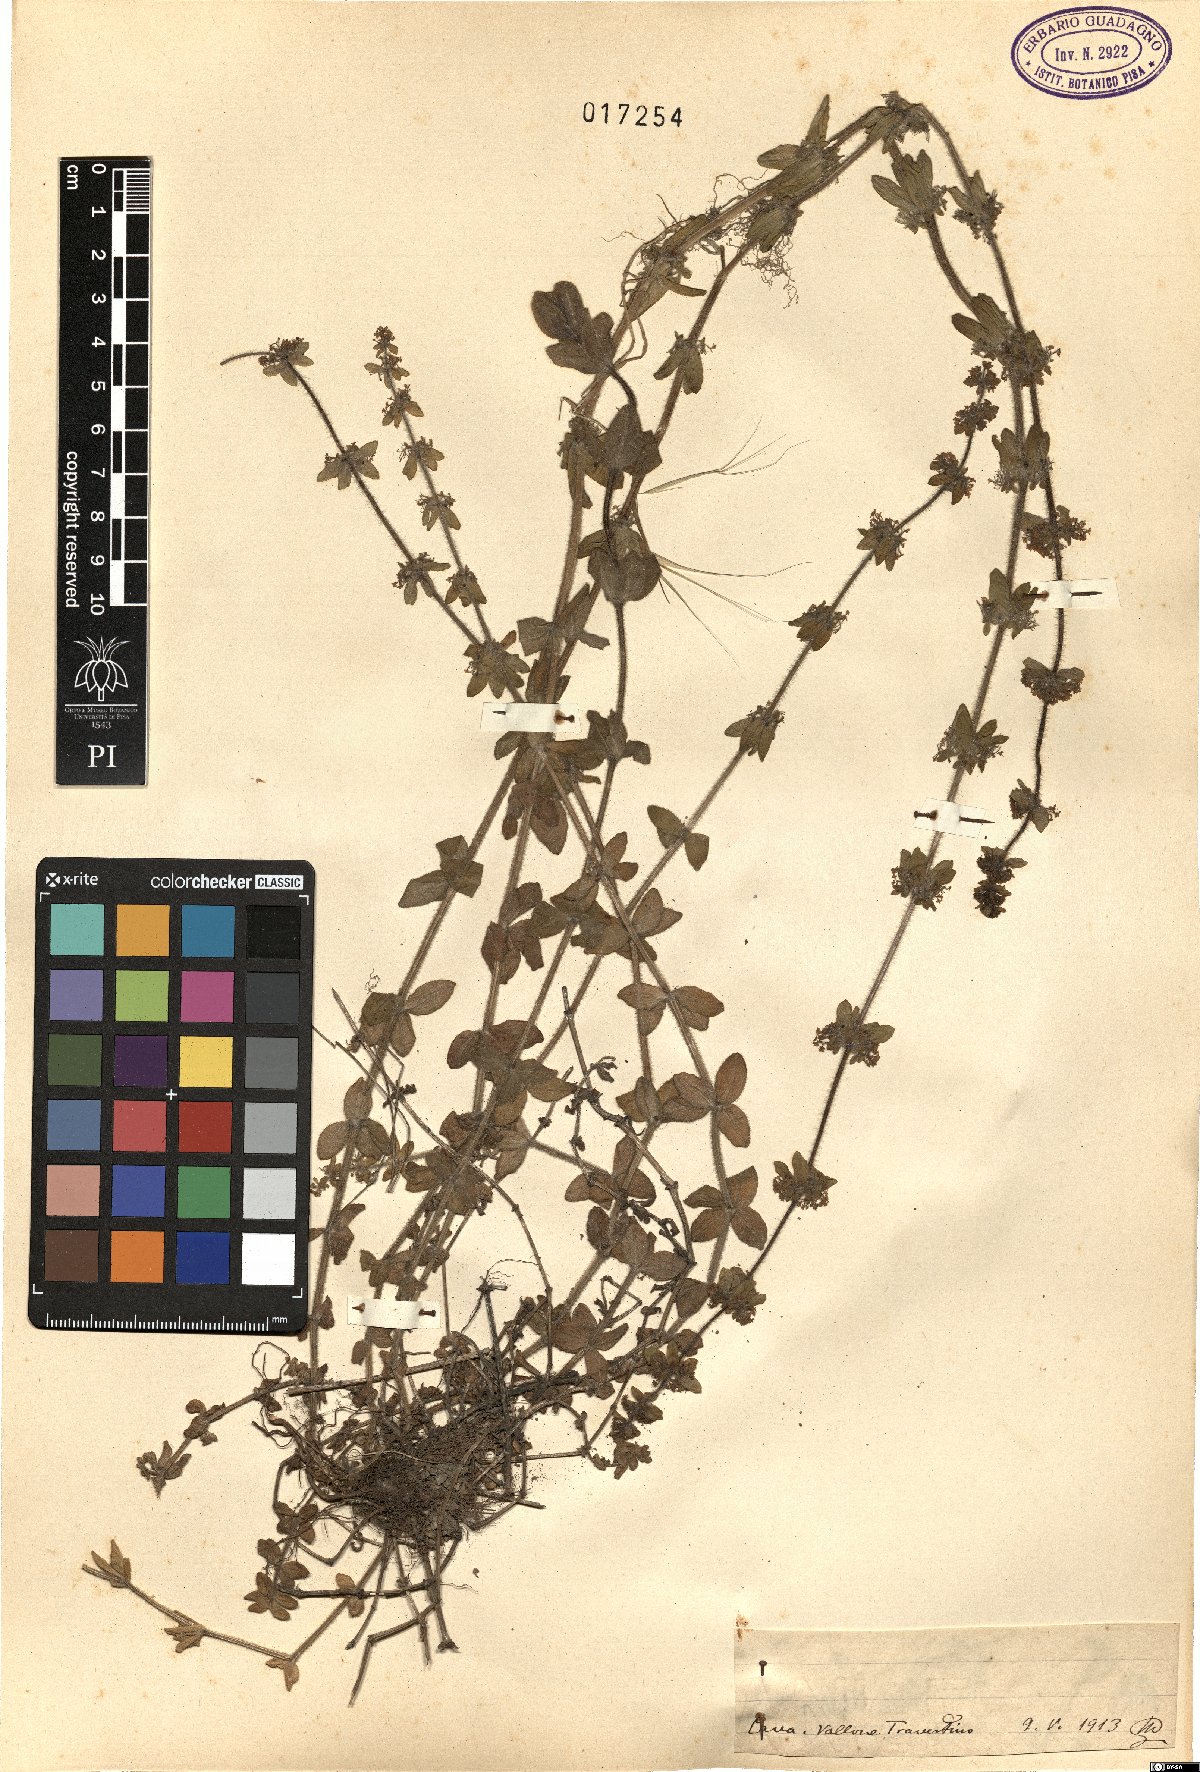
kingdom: Plantae
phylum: Tracheophyta
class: Magnoliopsida
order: Gentianales
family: Rubiaceae
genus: Galium
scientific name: Galium
